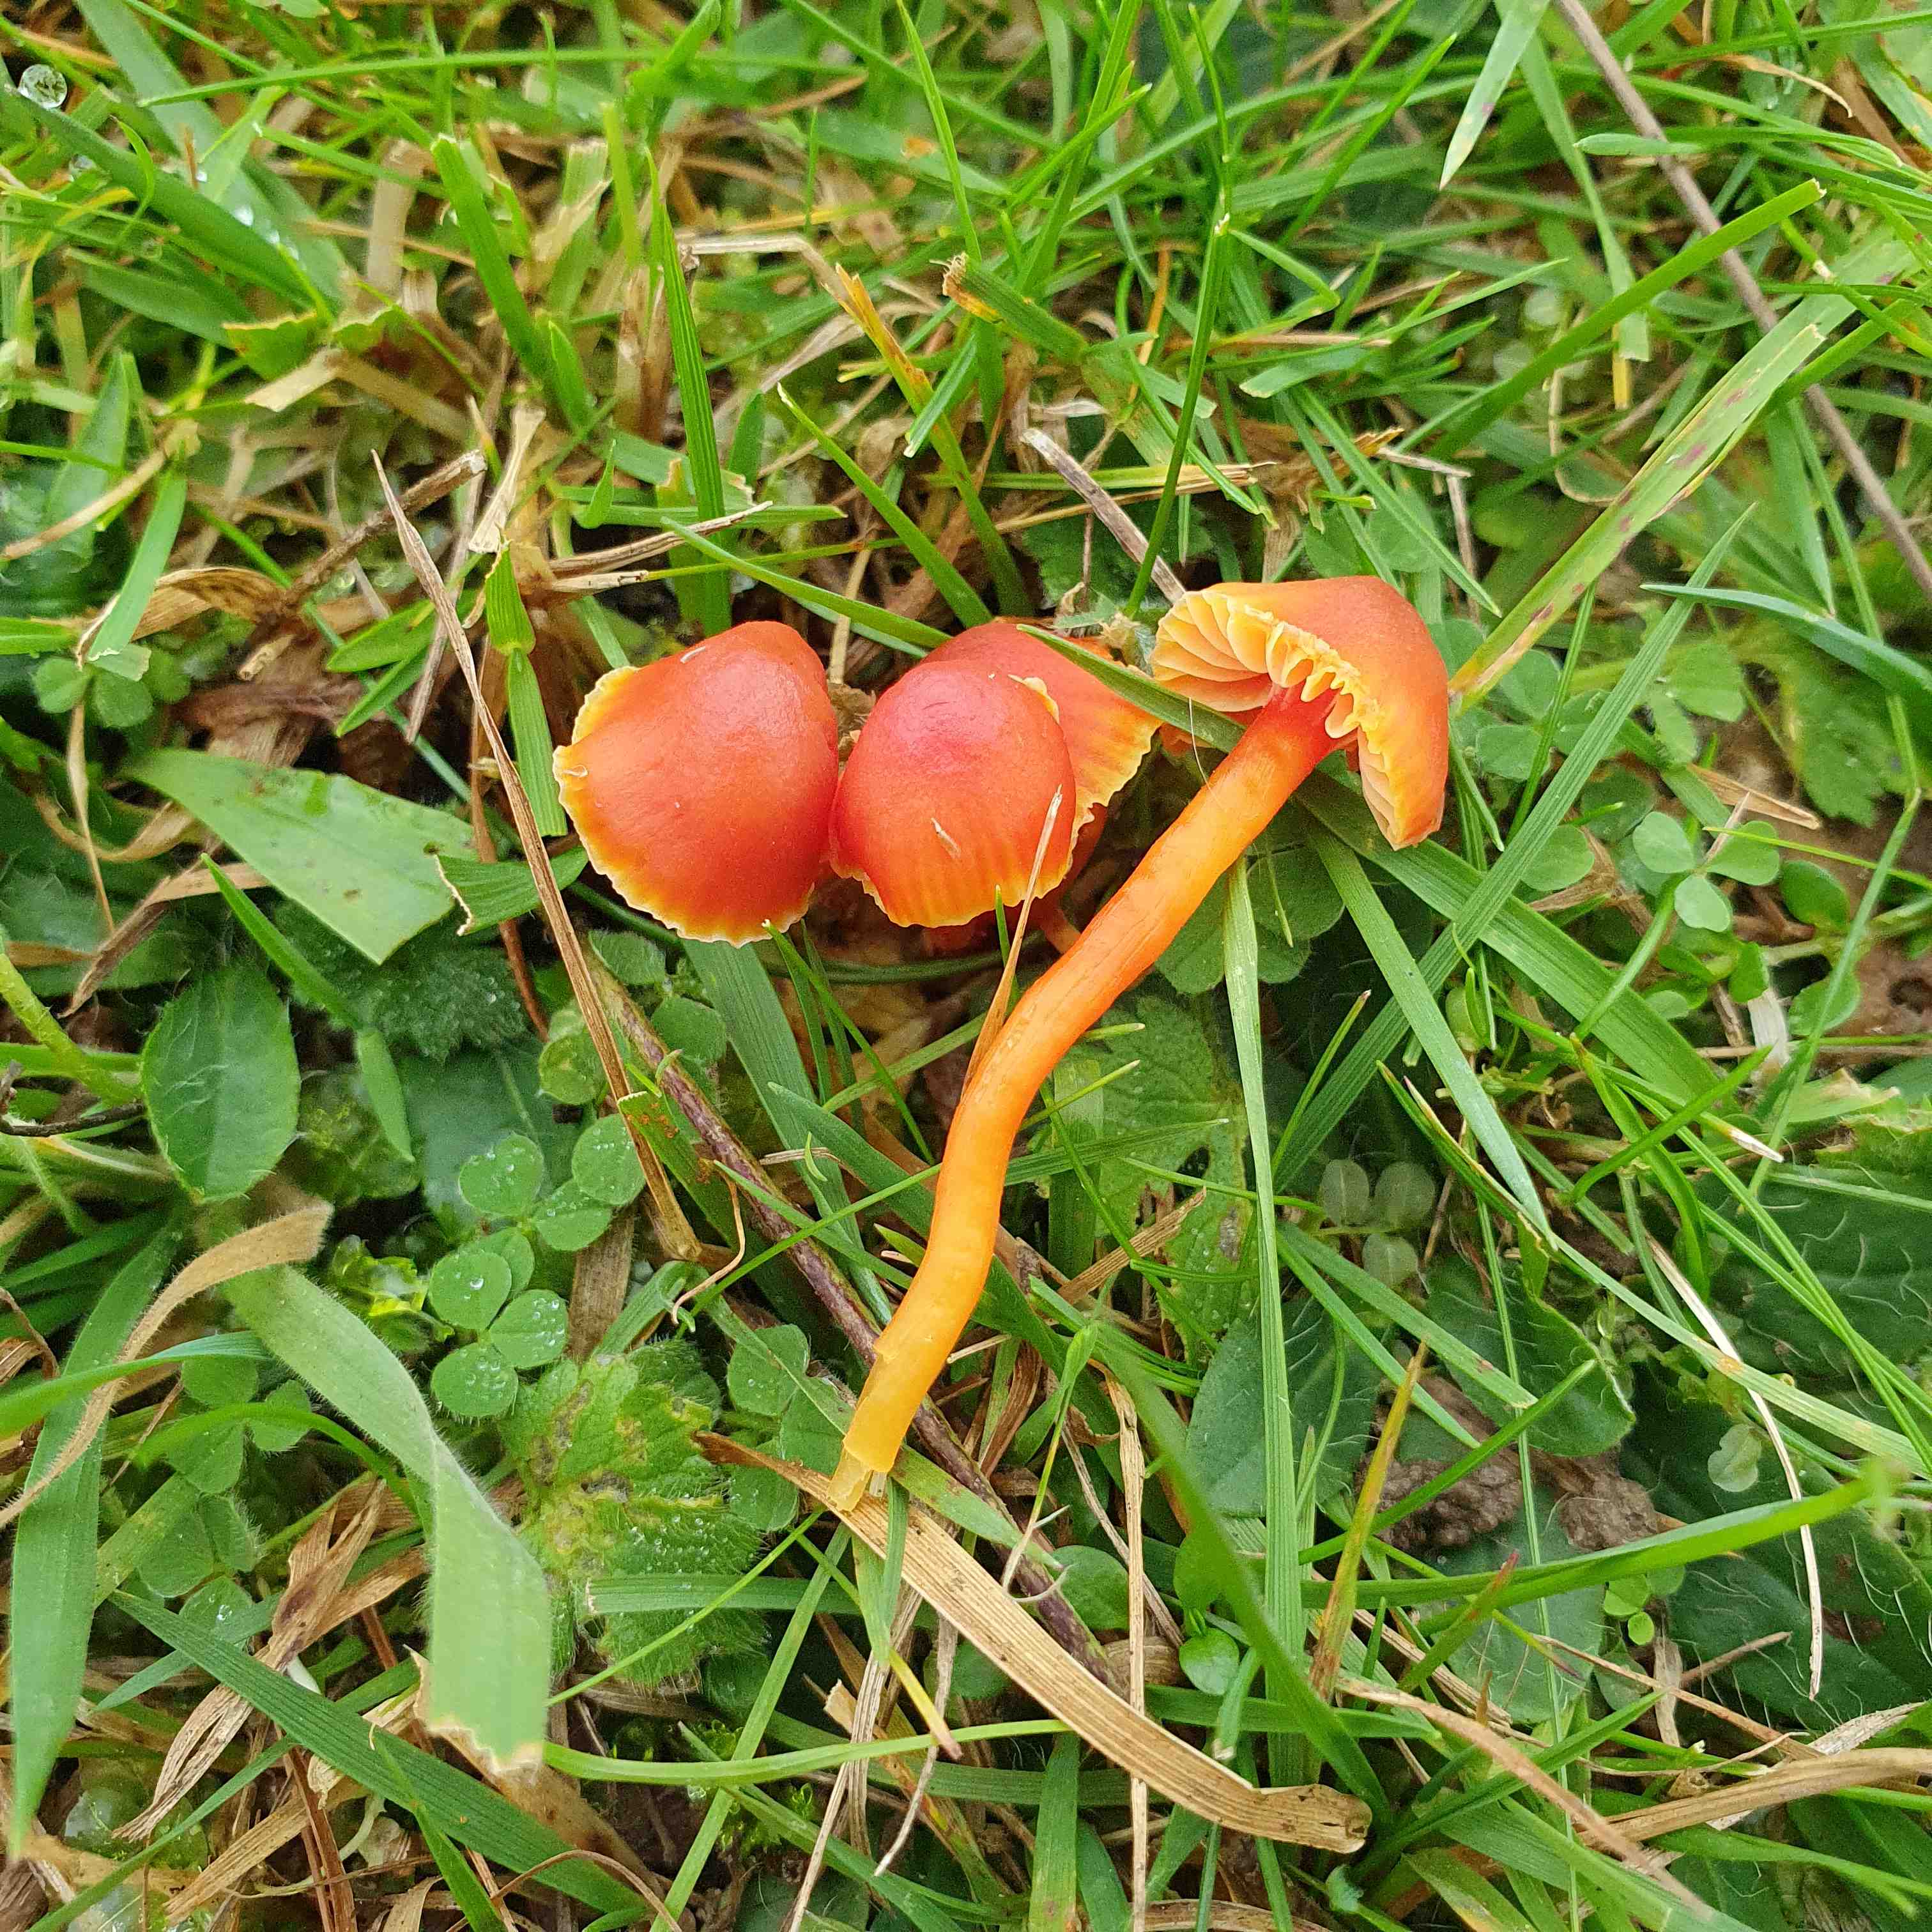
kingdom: Fungi
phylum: Basidiomycota
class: Agaricomycetes
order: Agaricales
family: Hygrophoraceae
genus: Hygrocybe
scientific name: Hygrocybe mucronella
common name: bitter vokshat
